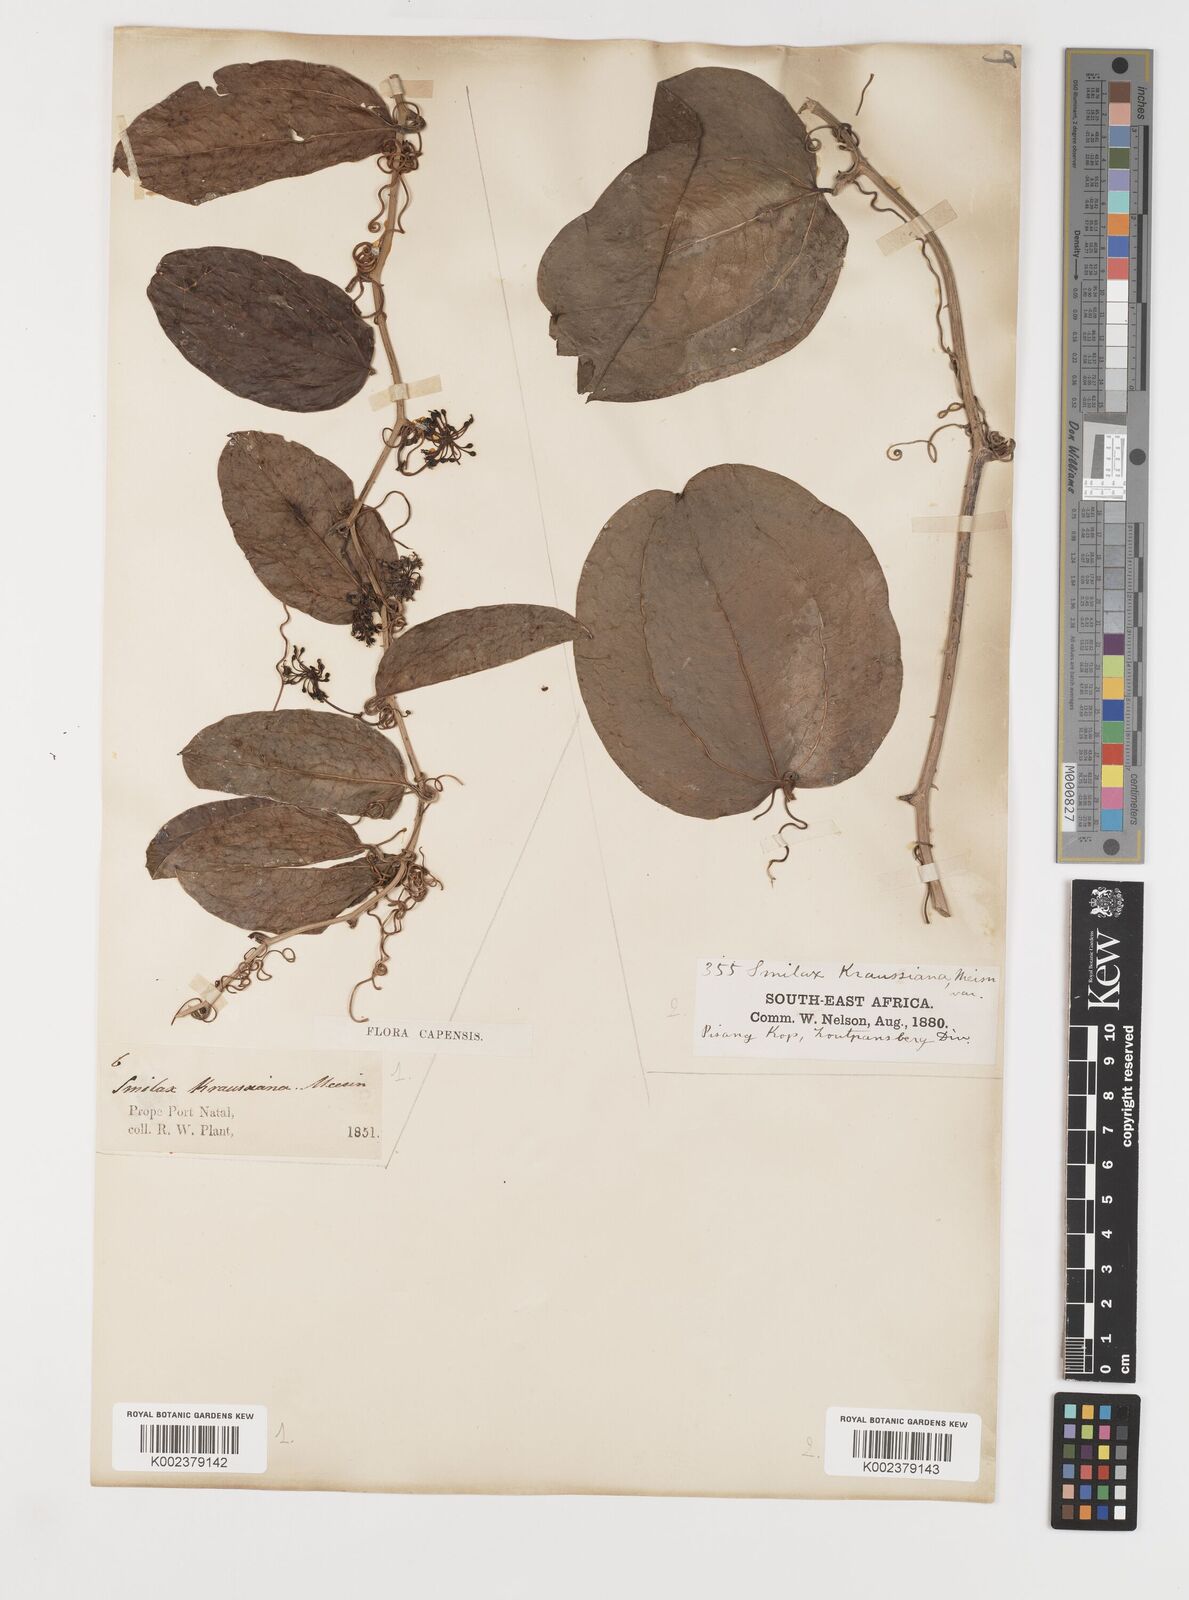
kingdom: Plantae
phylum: Tracheophyta
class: Liliopsida
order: Liliales
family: Smilacaceae
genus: Smilax
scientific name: Smilax anceps
